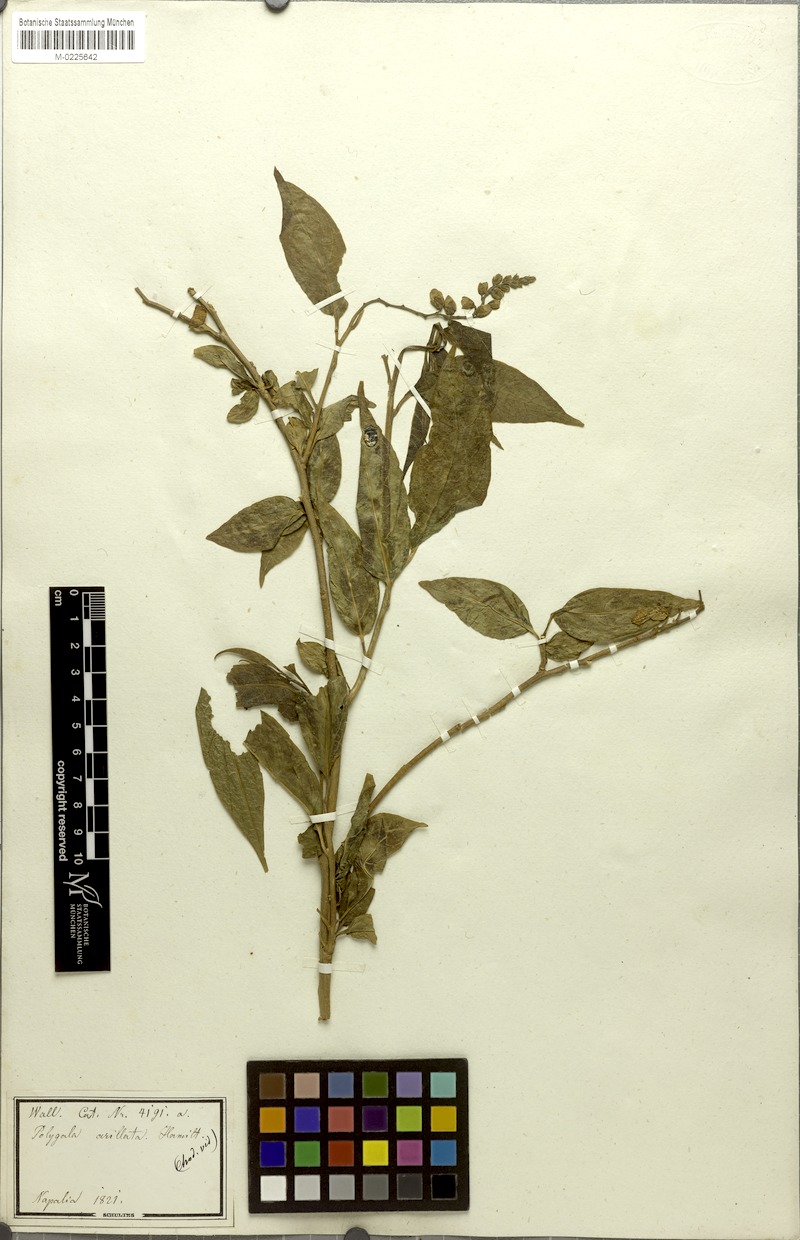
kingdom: Plantae
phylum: Tracheophyta
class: Magnoliopsida
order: Fabales
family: Polygalaceae
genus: Polygala
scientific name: Polygala arillata
